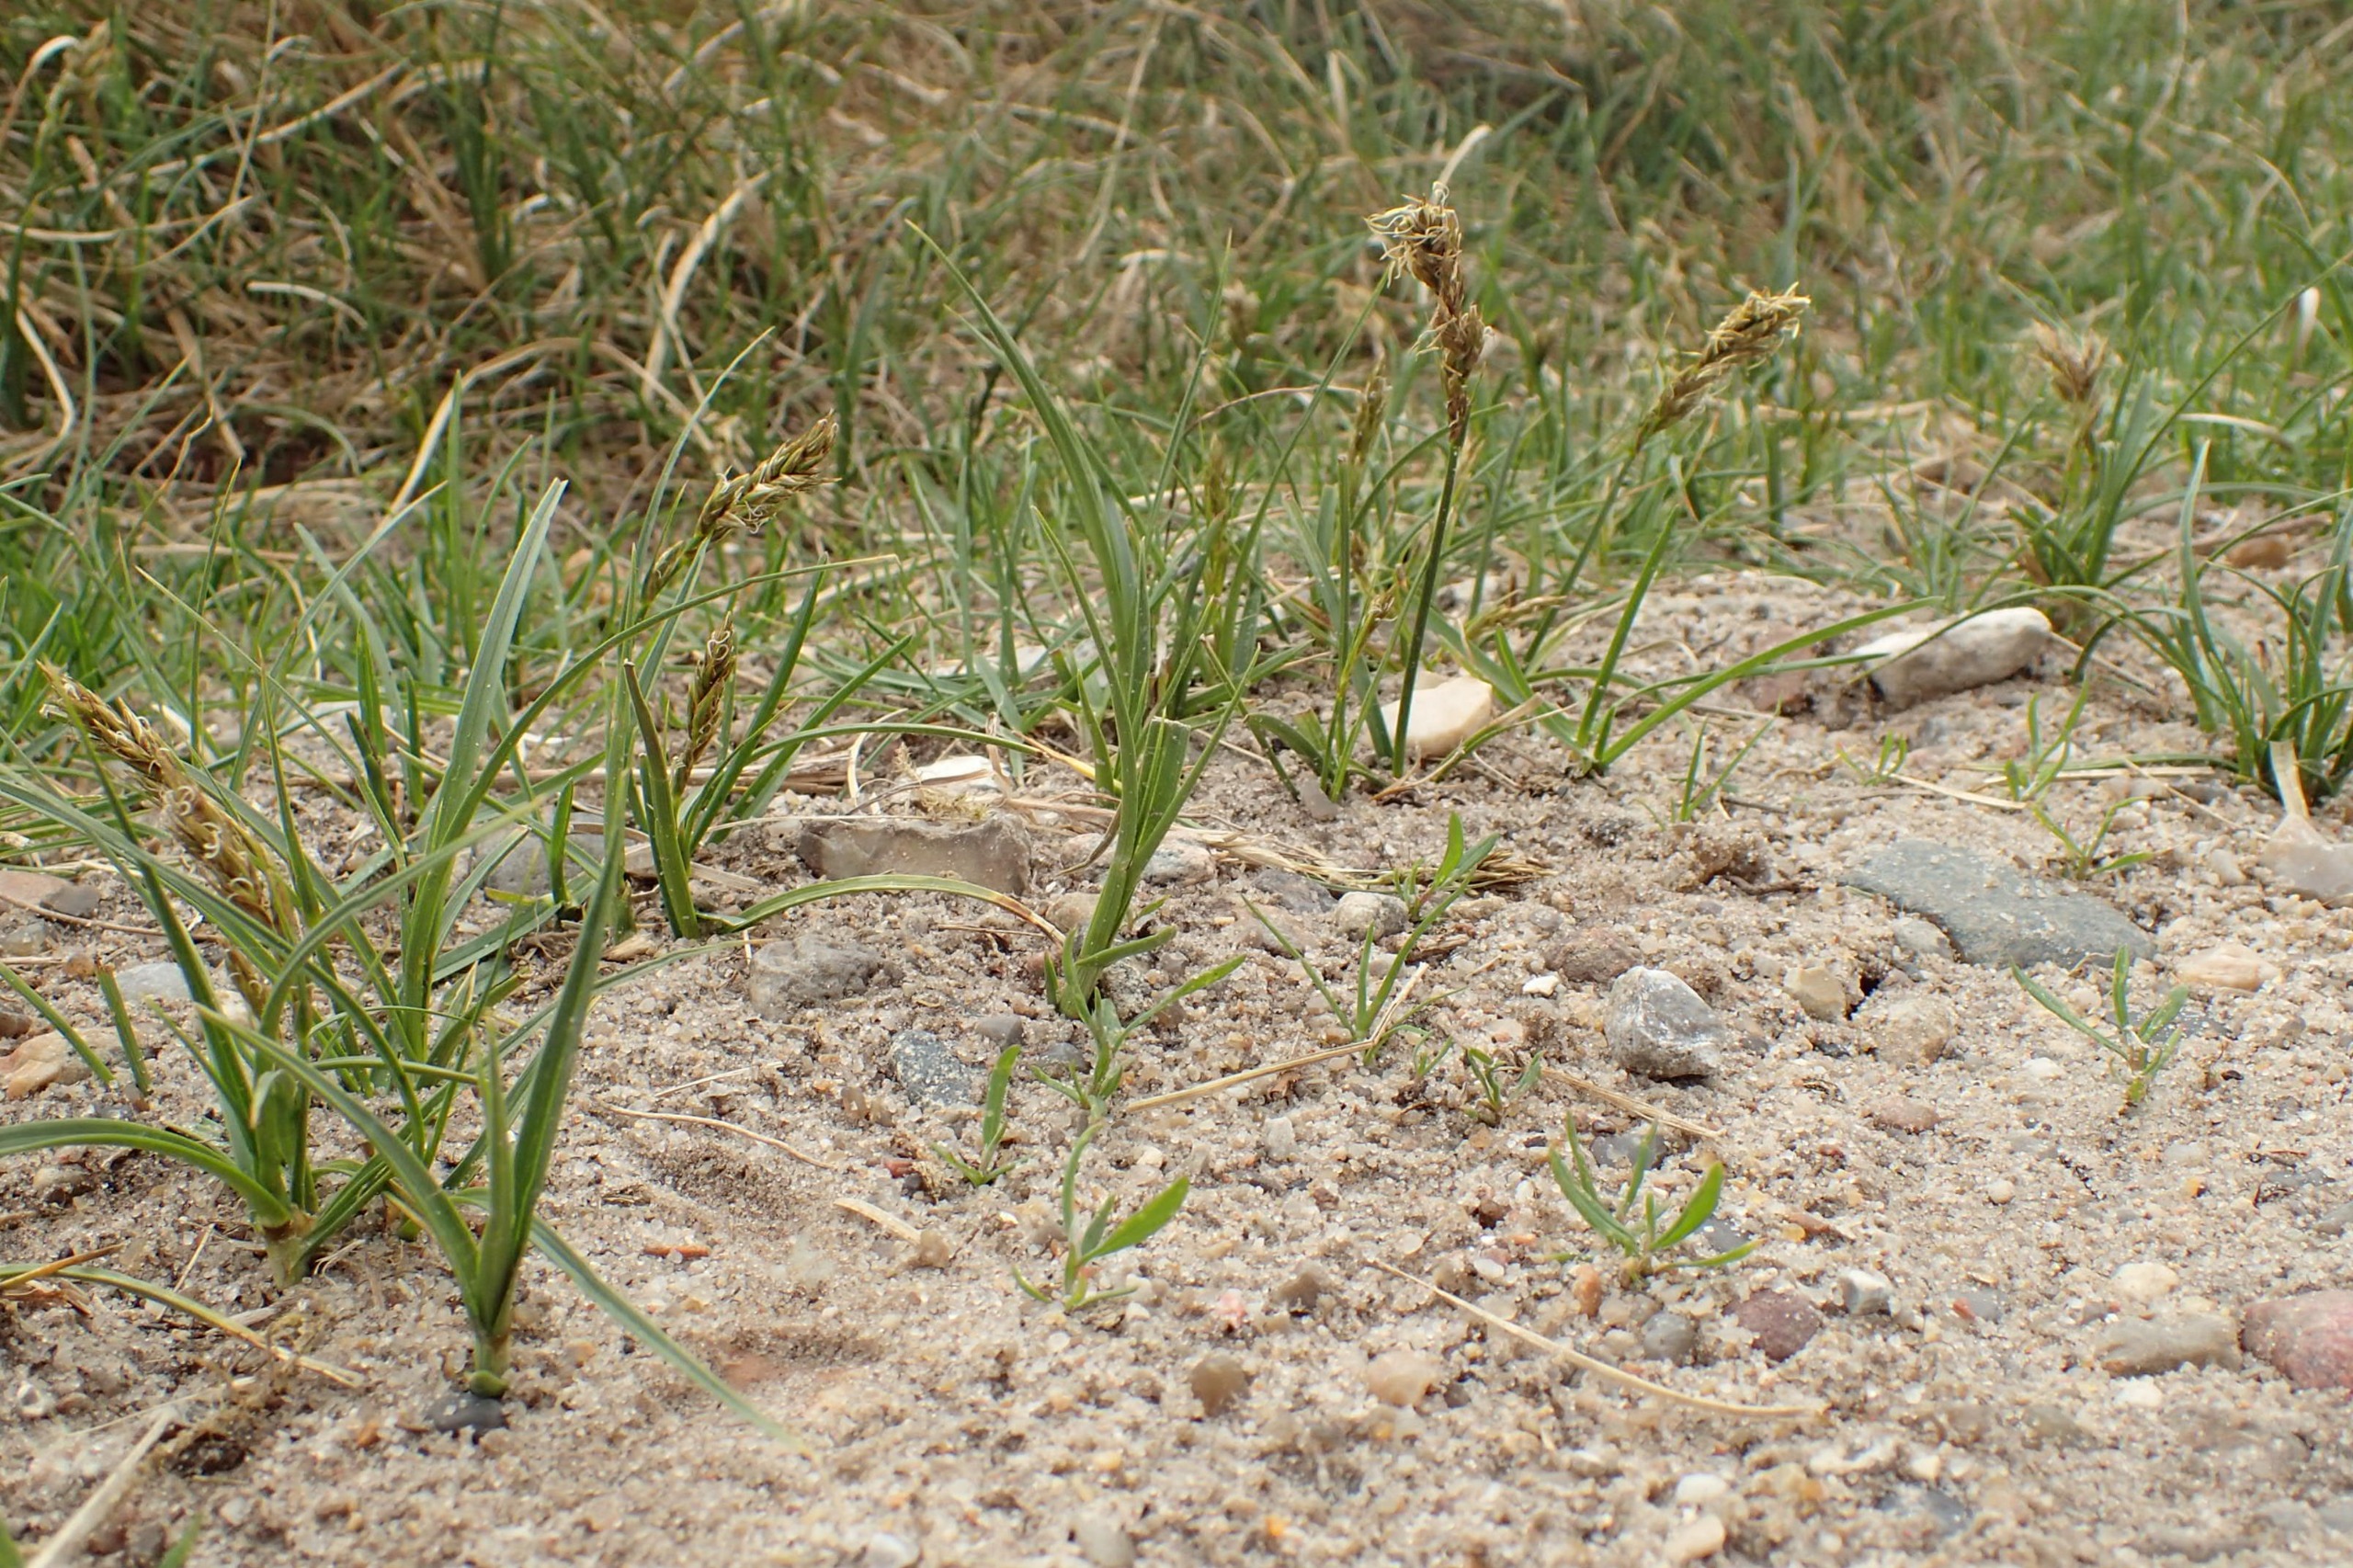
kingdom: Plantae
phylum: Tracheophyta
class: Liliopsida
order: Poales
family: Cyperaceae
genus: Carex
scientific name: Carex arenaria
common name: Sand-star
